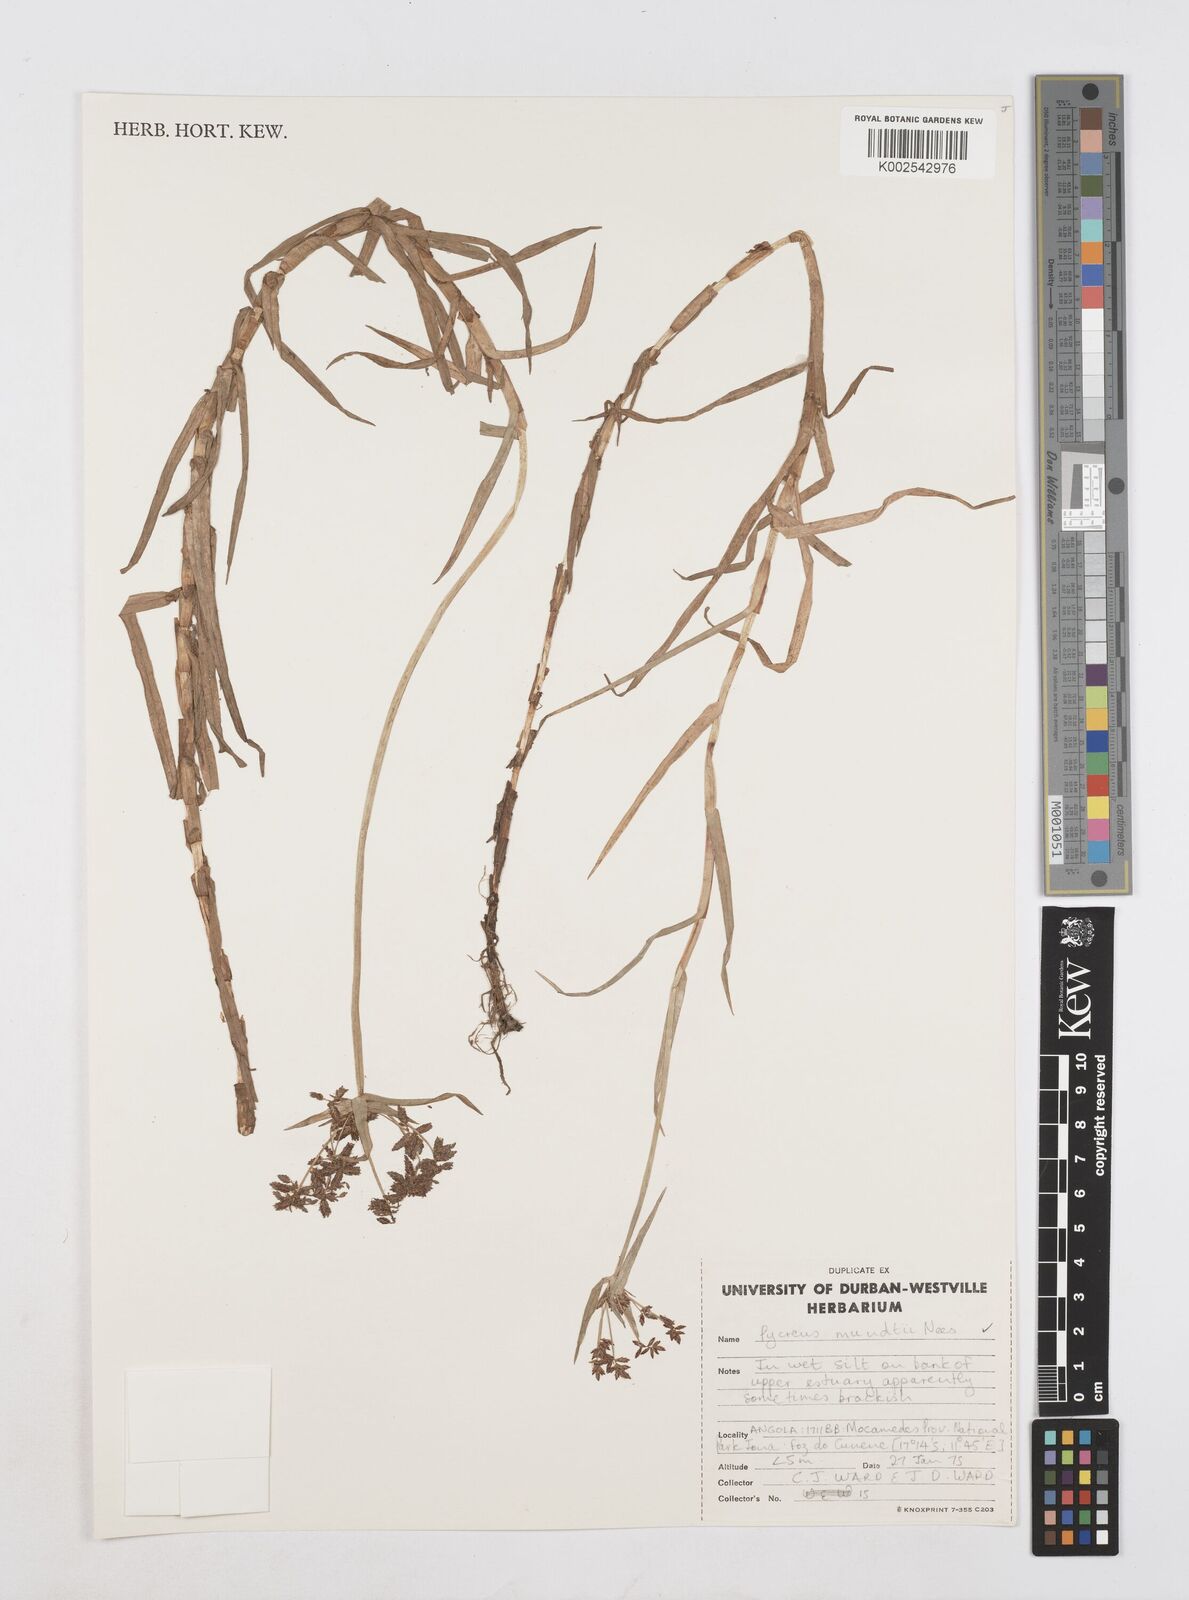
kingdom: Plantae
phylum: Tracheophyta
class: Liliopsida
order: Poales
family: Cyperaceae
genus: Cyperus
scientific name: Cyperus mundii
